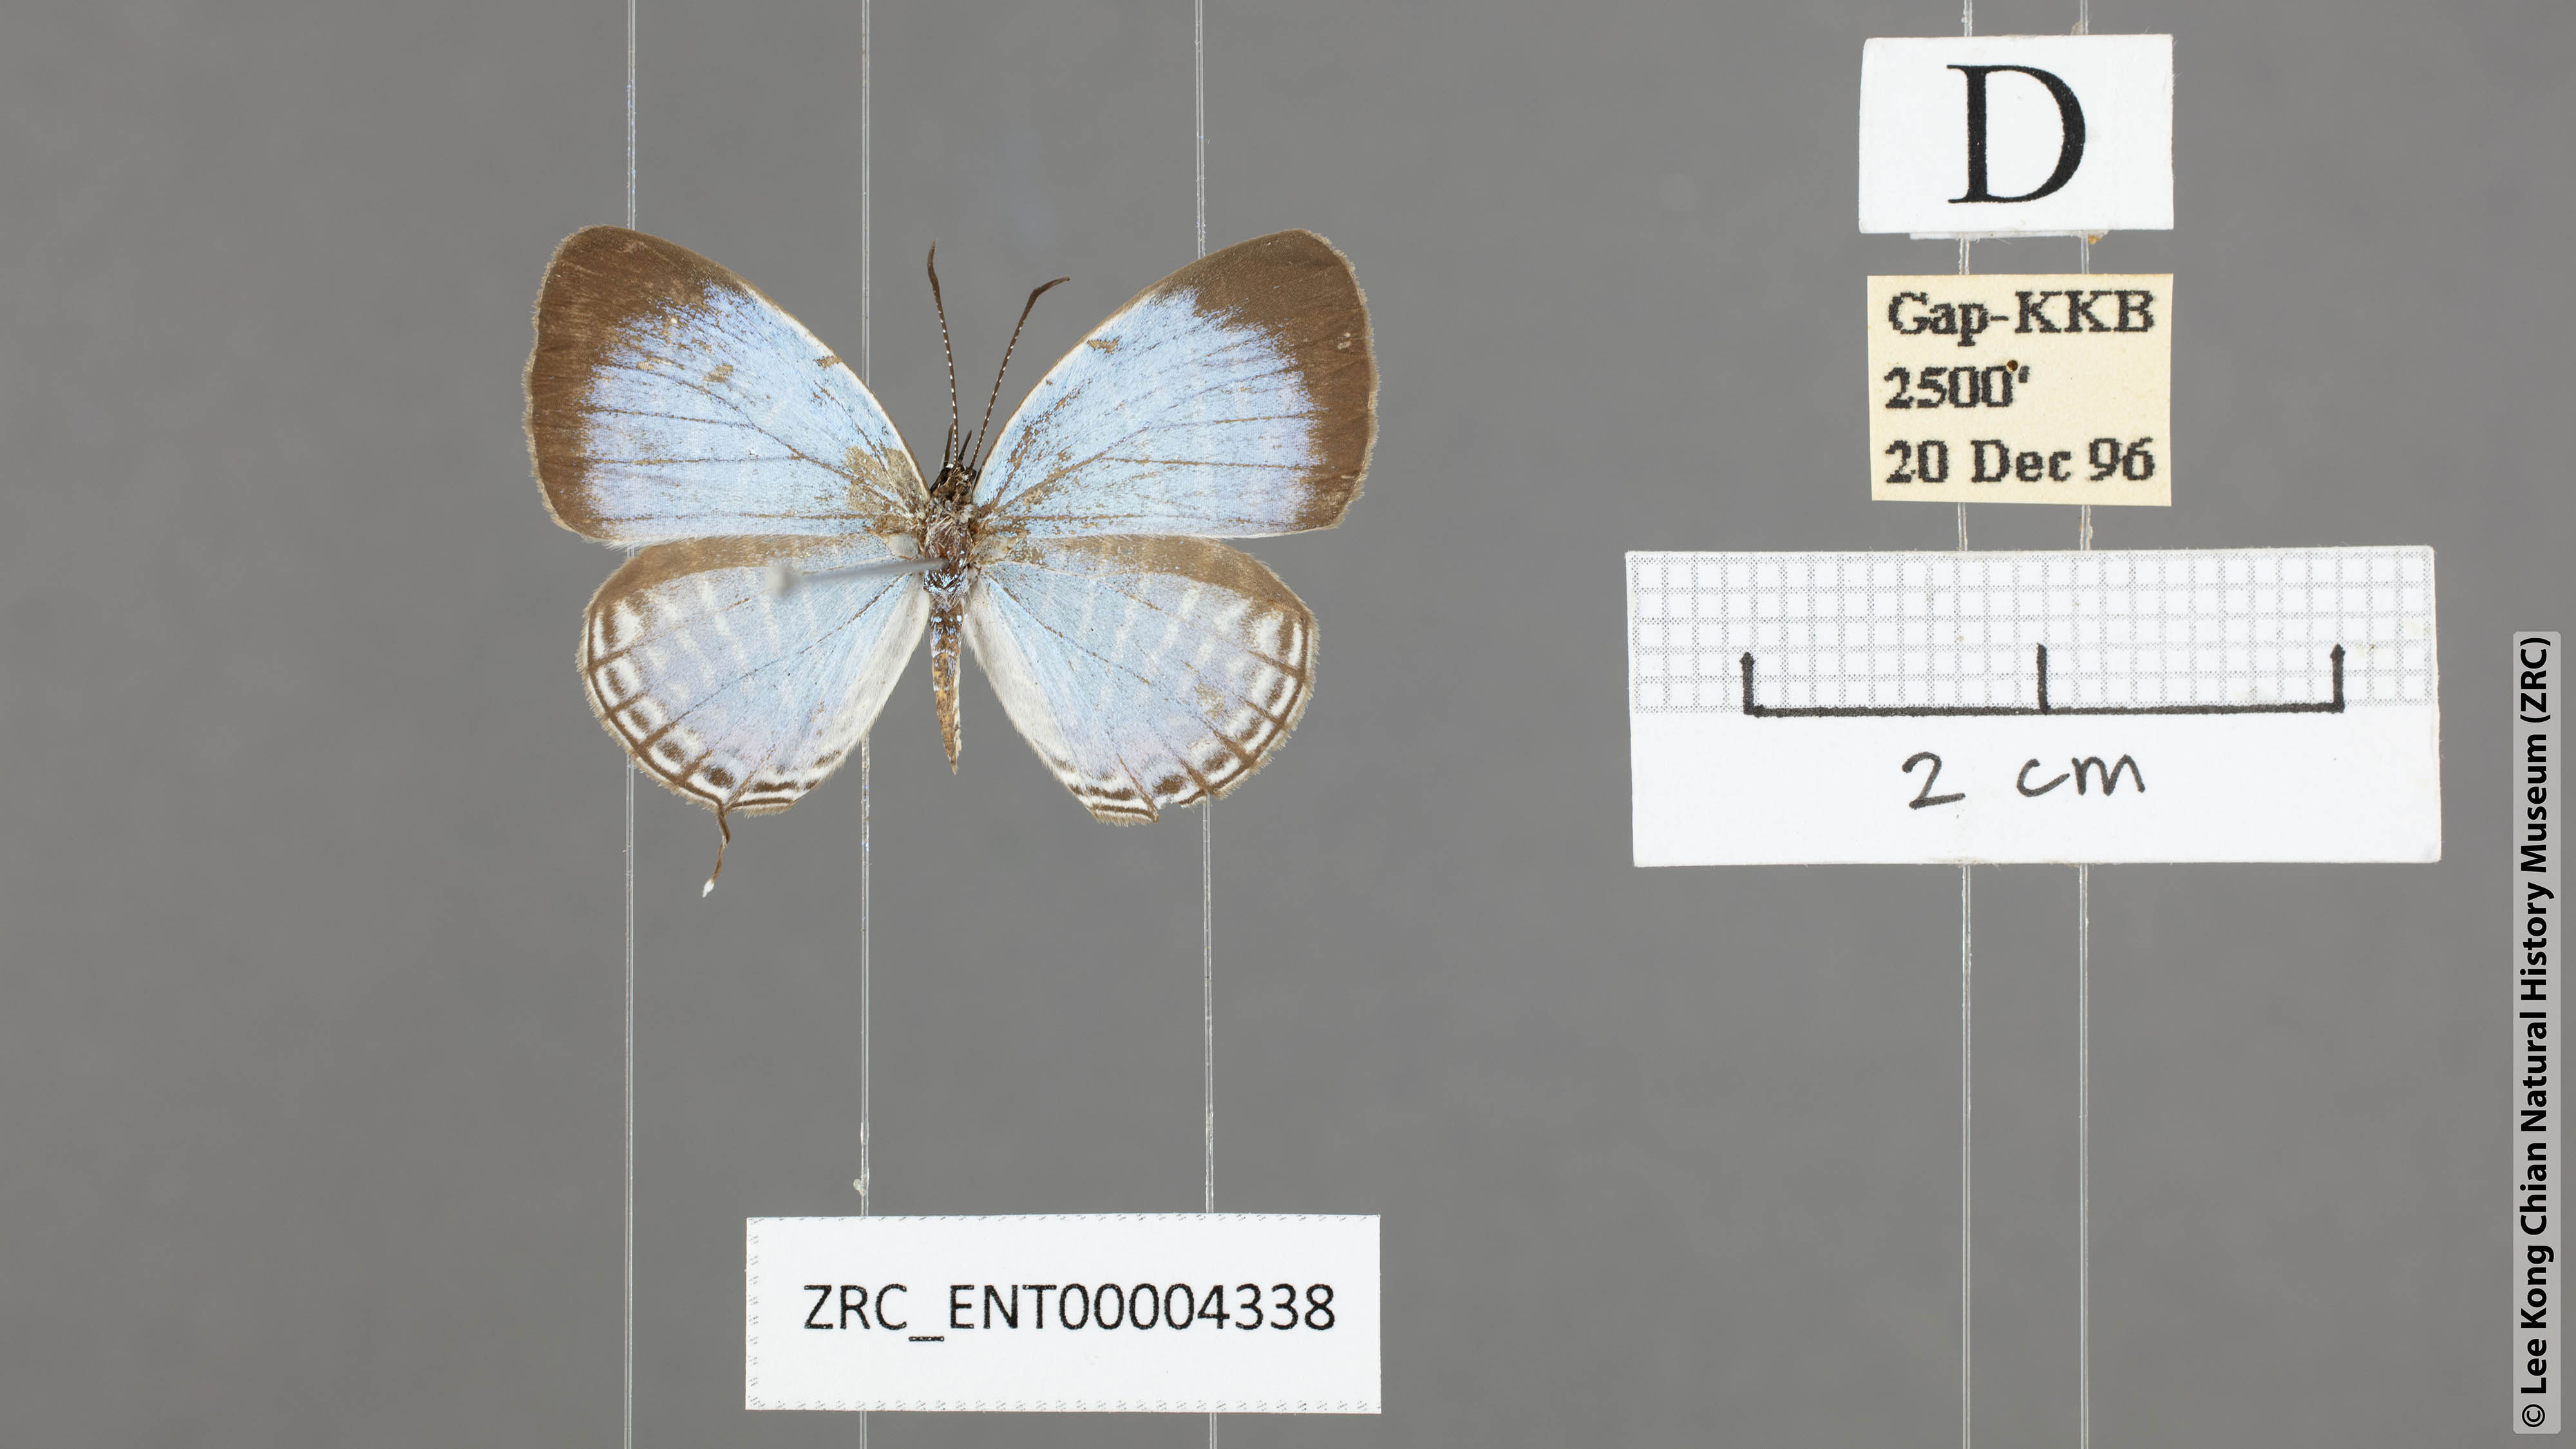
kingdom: Animalia
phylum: Arthropoda
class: Insecta
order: Lepidoptera
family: Lycaenidae
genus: Jamides
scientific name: Jamides malaccanus
